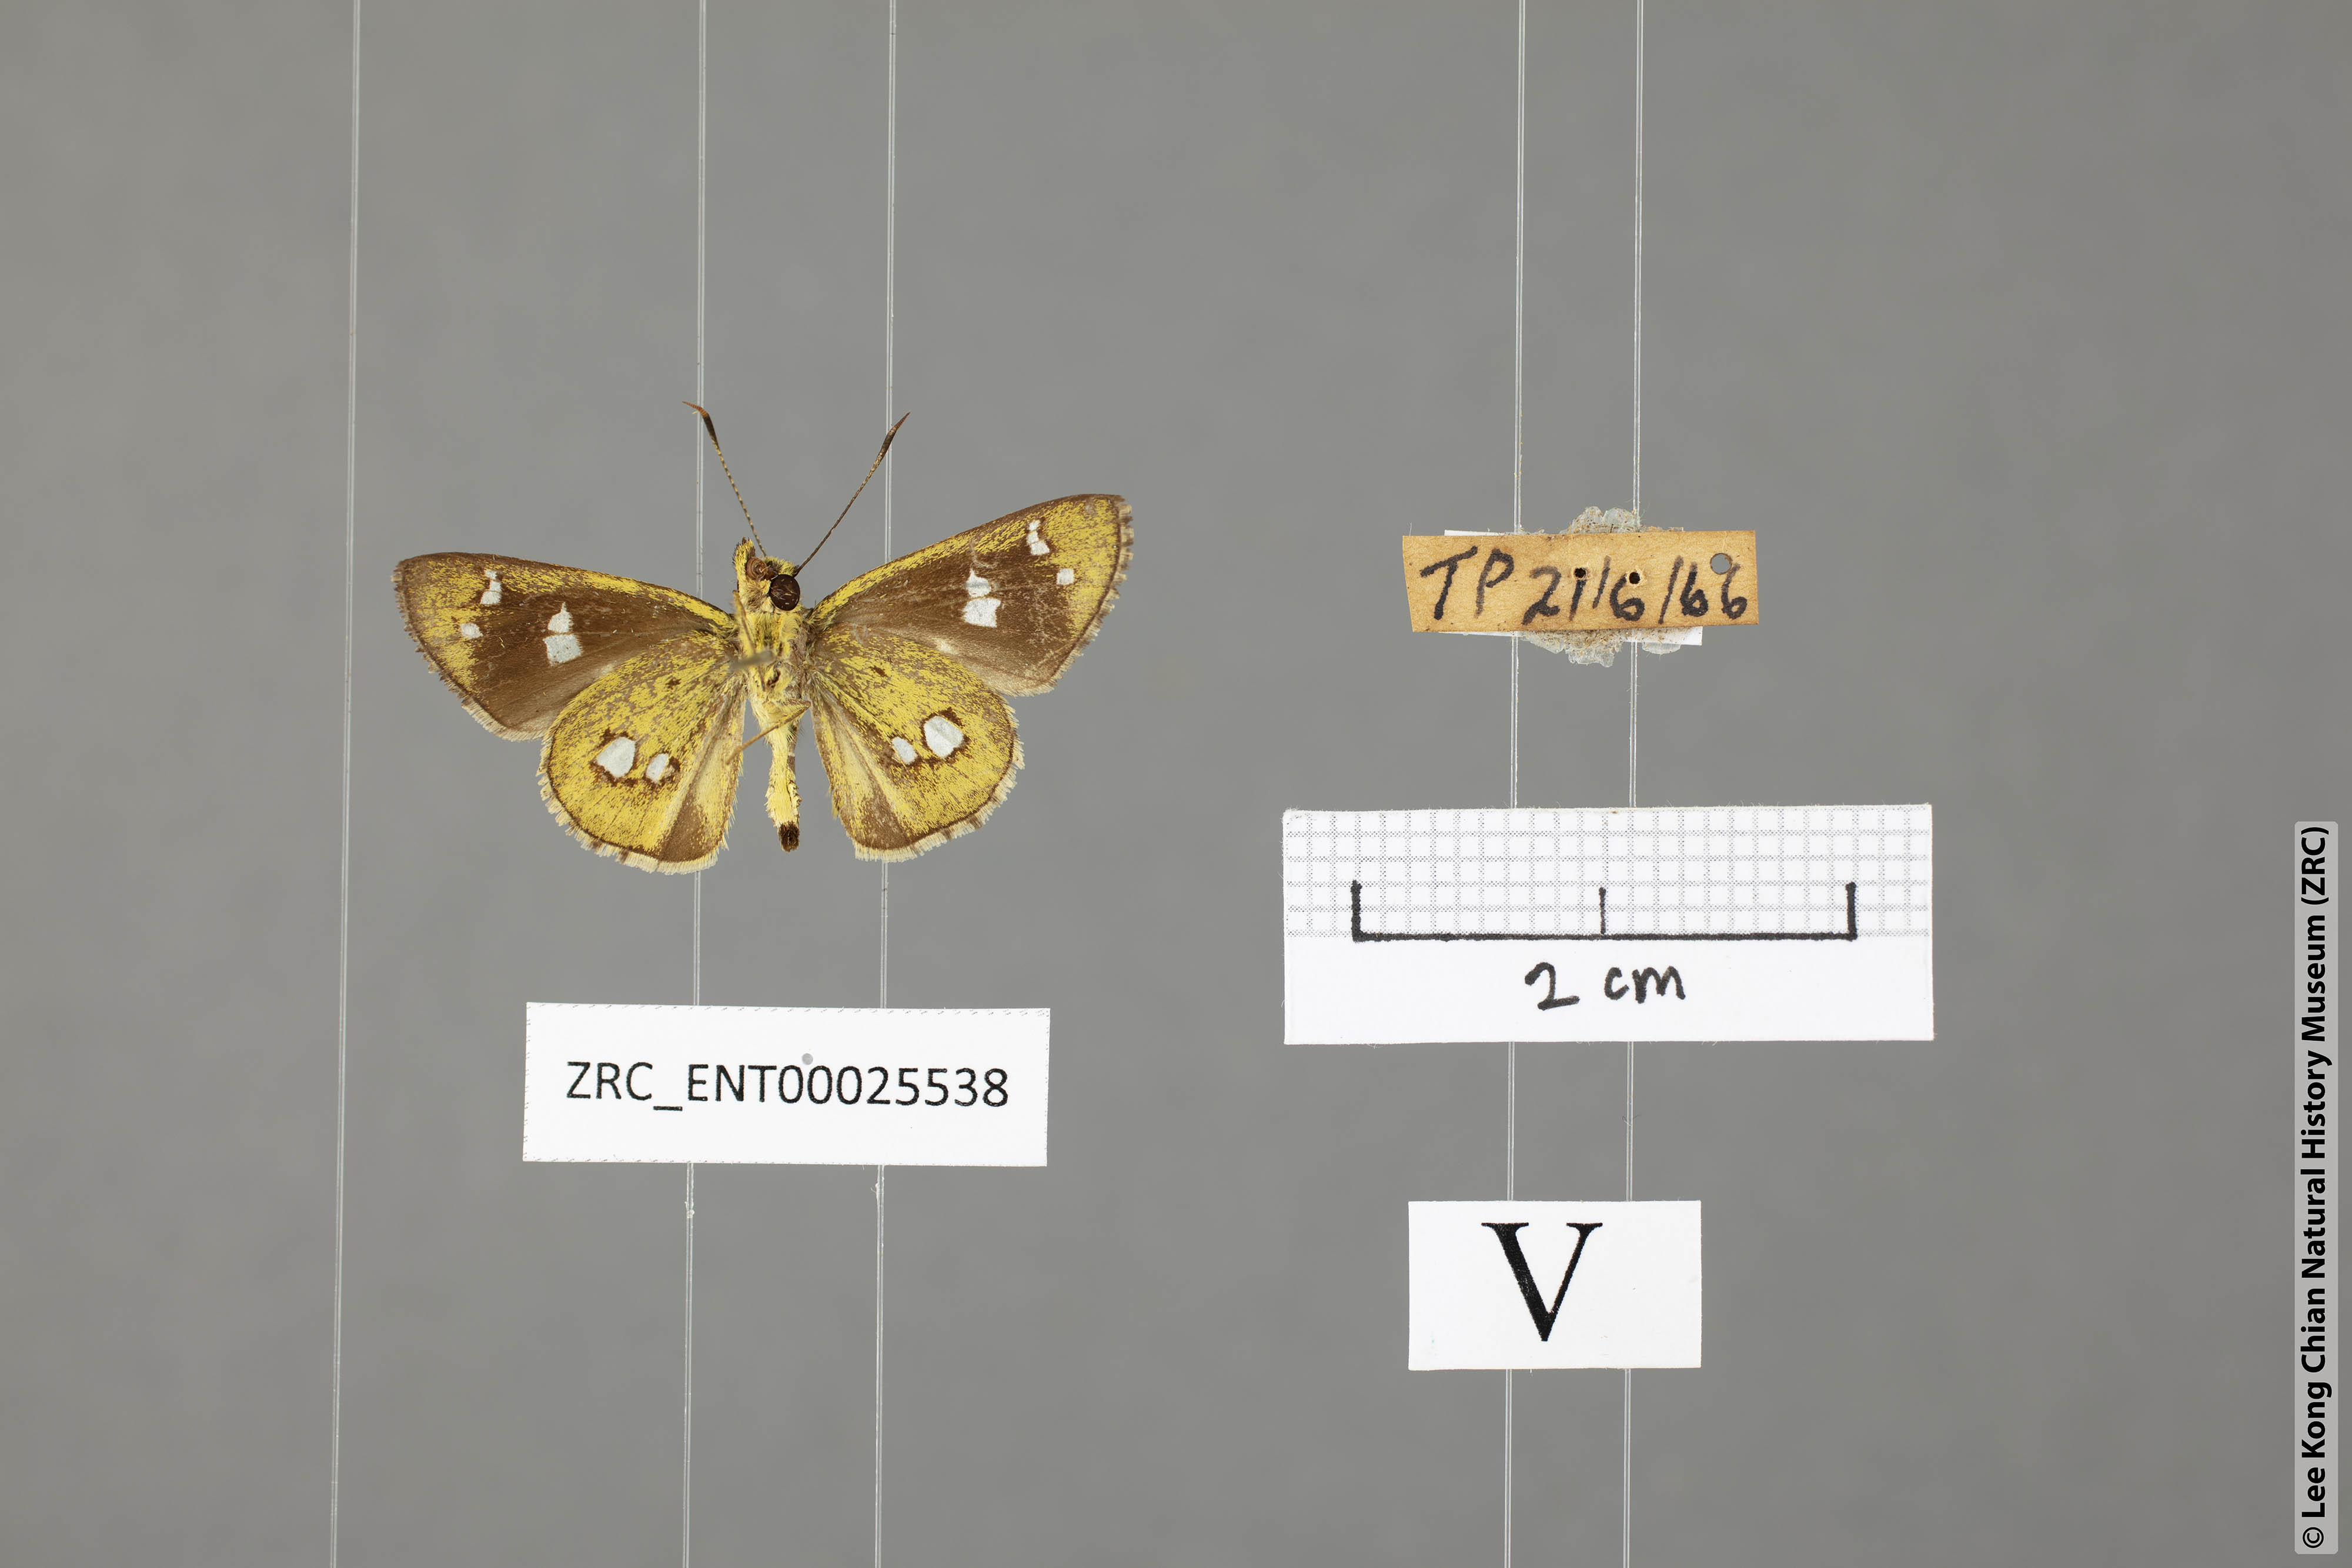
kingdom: Animalia
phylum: Arthropoda
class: Insecta
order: Lepidoptera
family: Hesperiidae
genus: Scobura
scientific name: Scobura isota
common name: Swinhoe's forest bob
